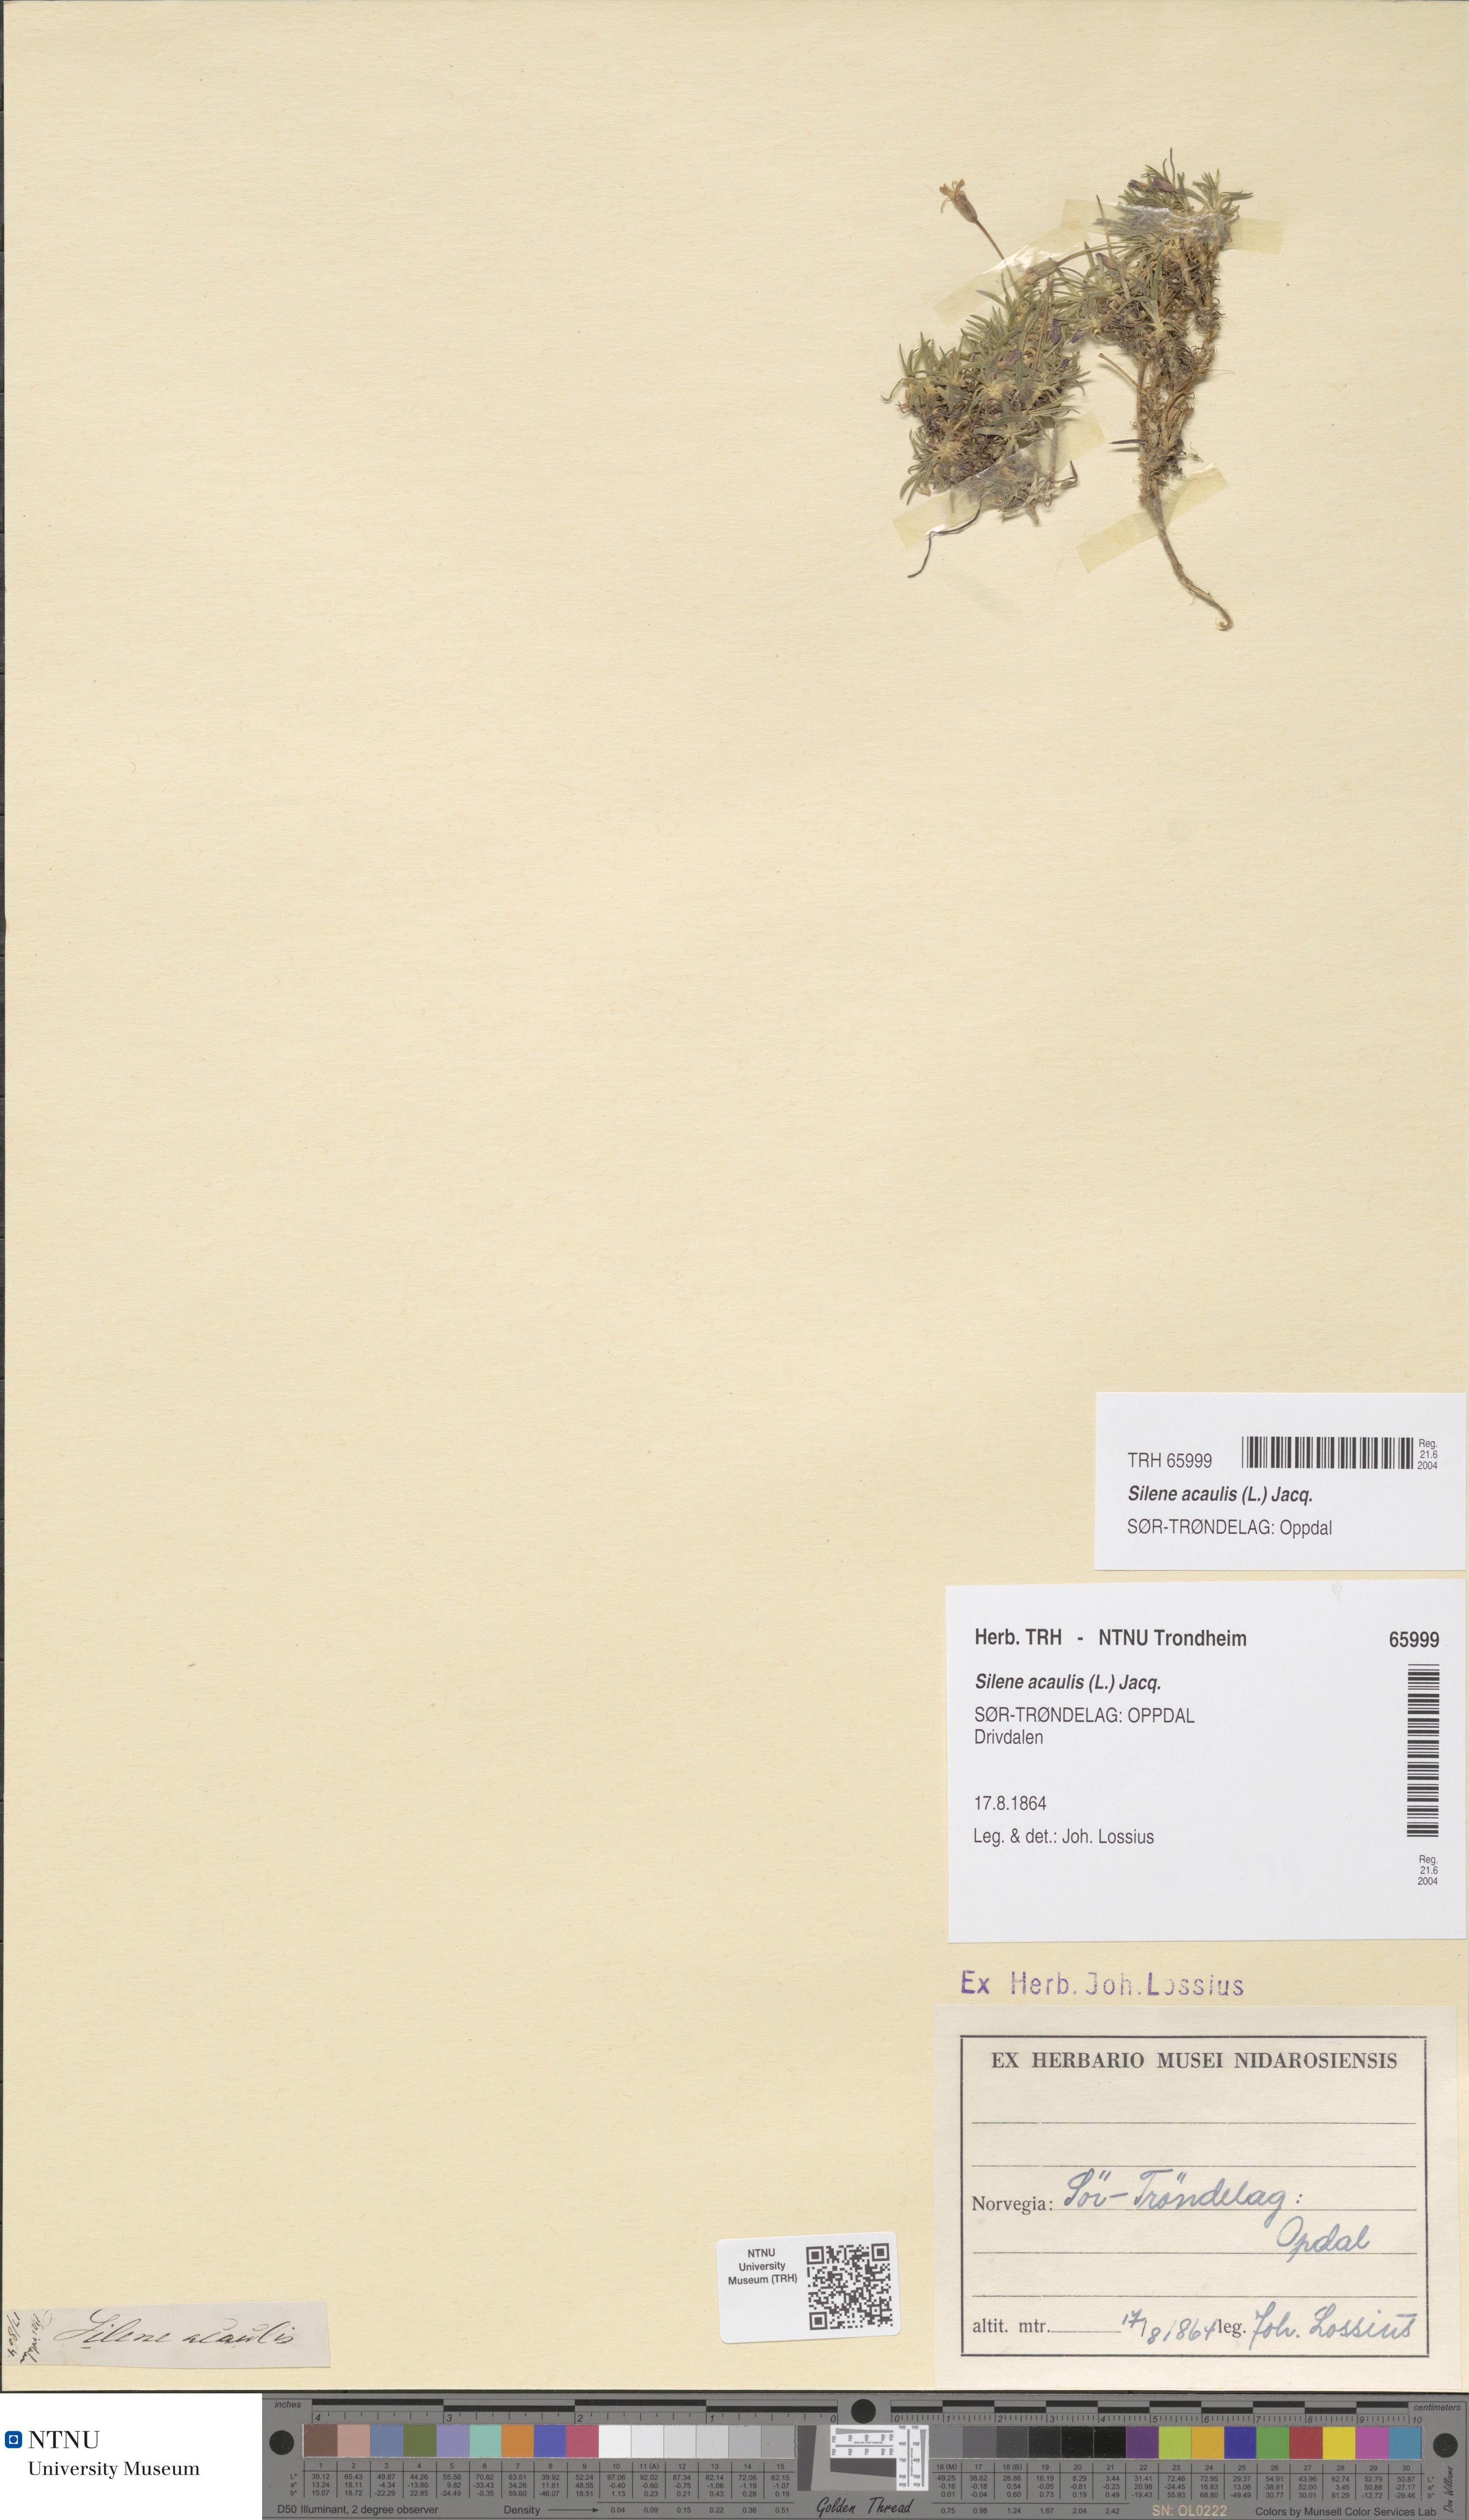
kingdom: Plantae
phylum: Tracheophyta
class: Magnoliopsida
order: Caryophyllales
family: Caryophyllaceae
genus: Silene
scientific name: Silene acaulis
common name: Moss campion
